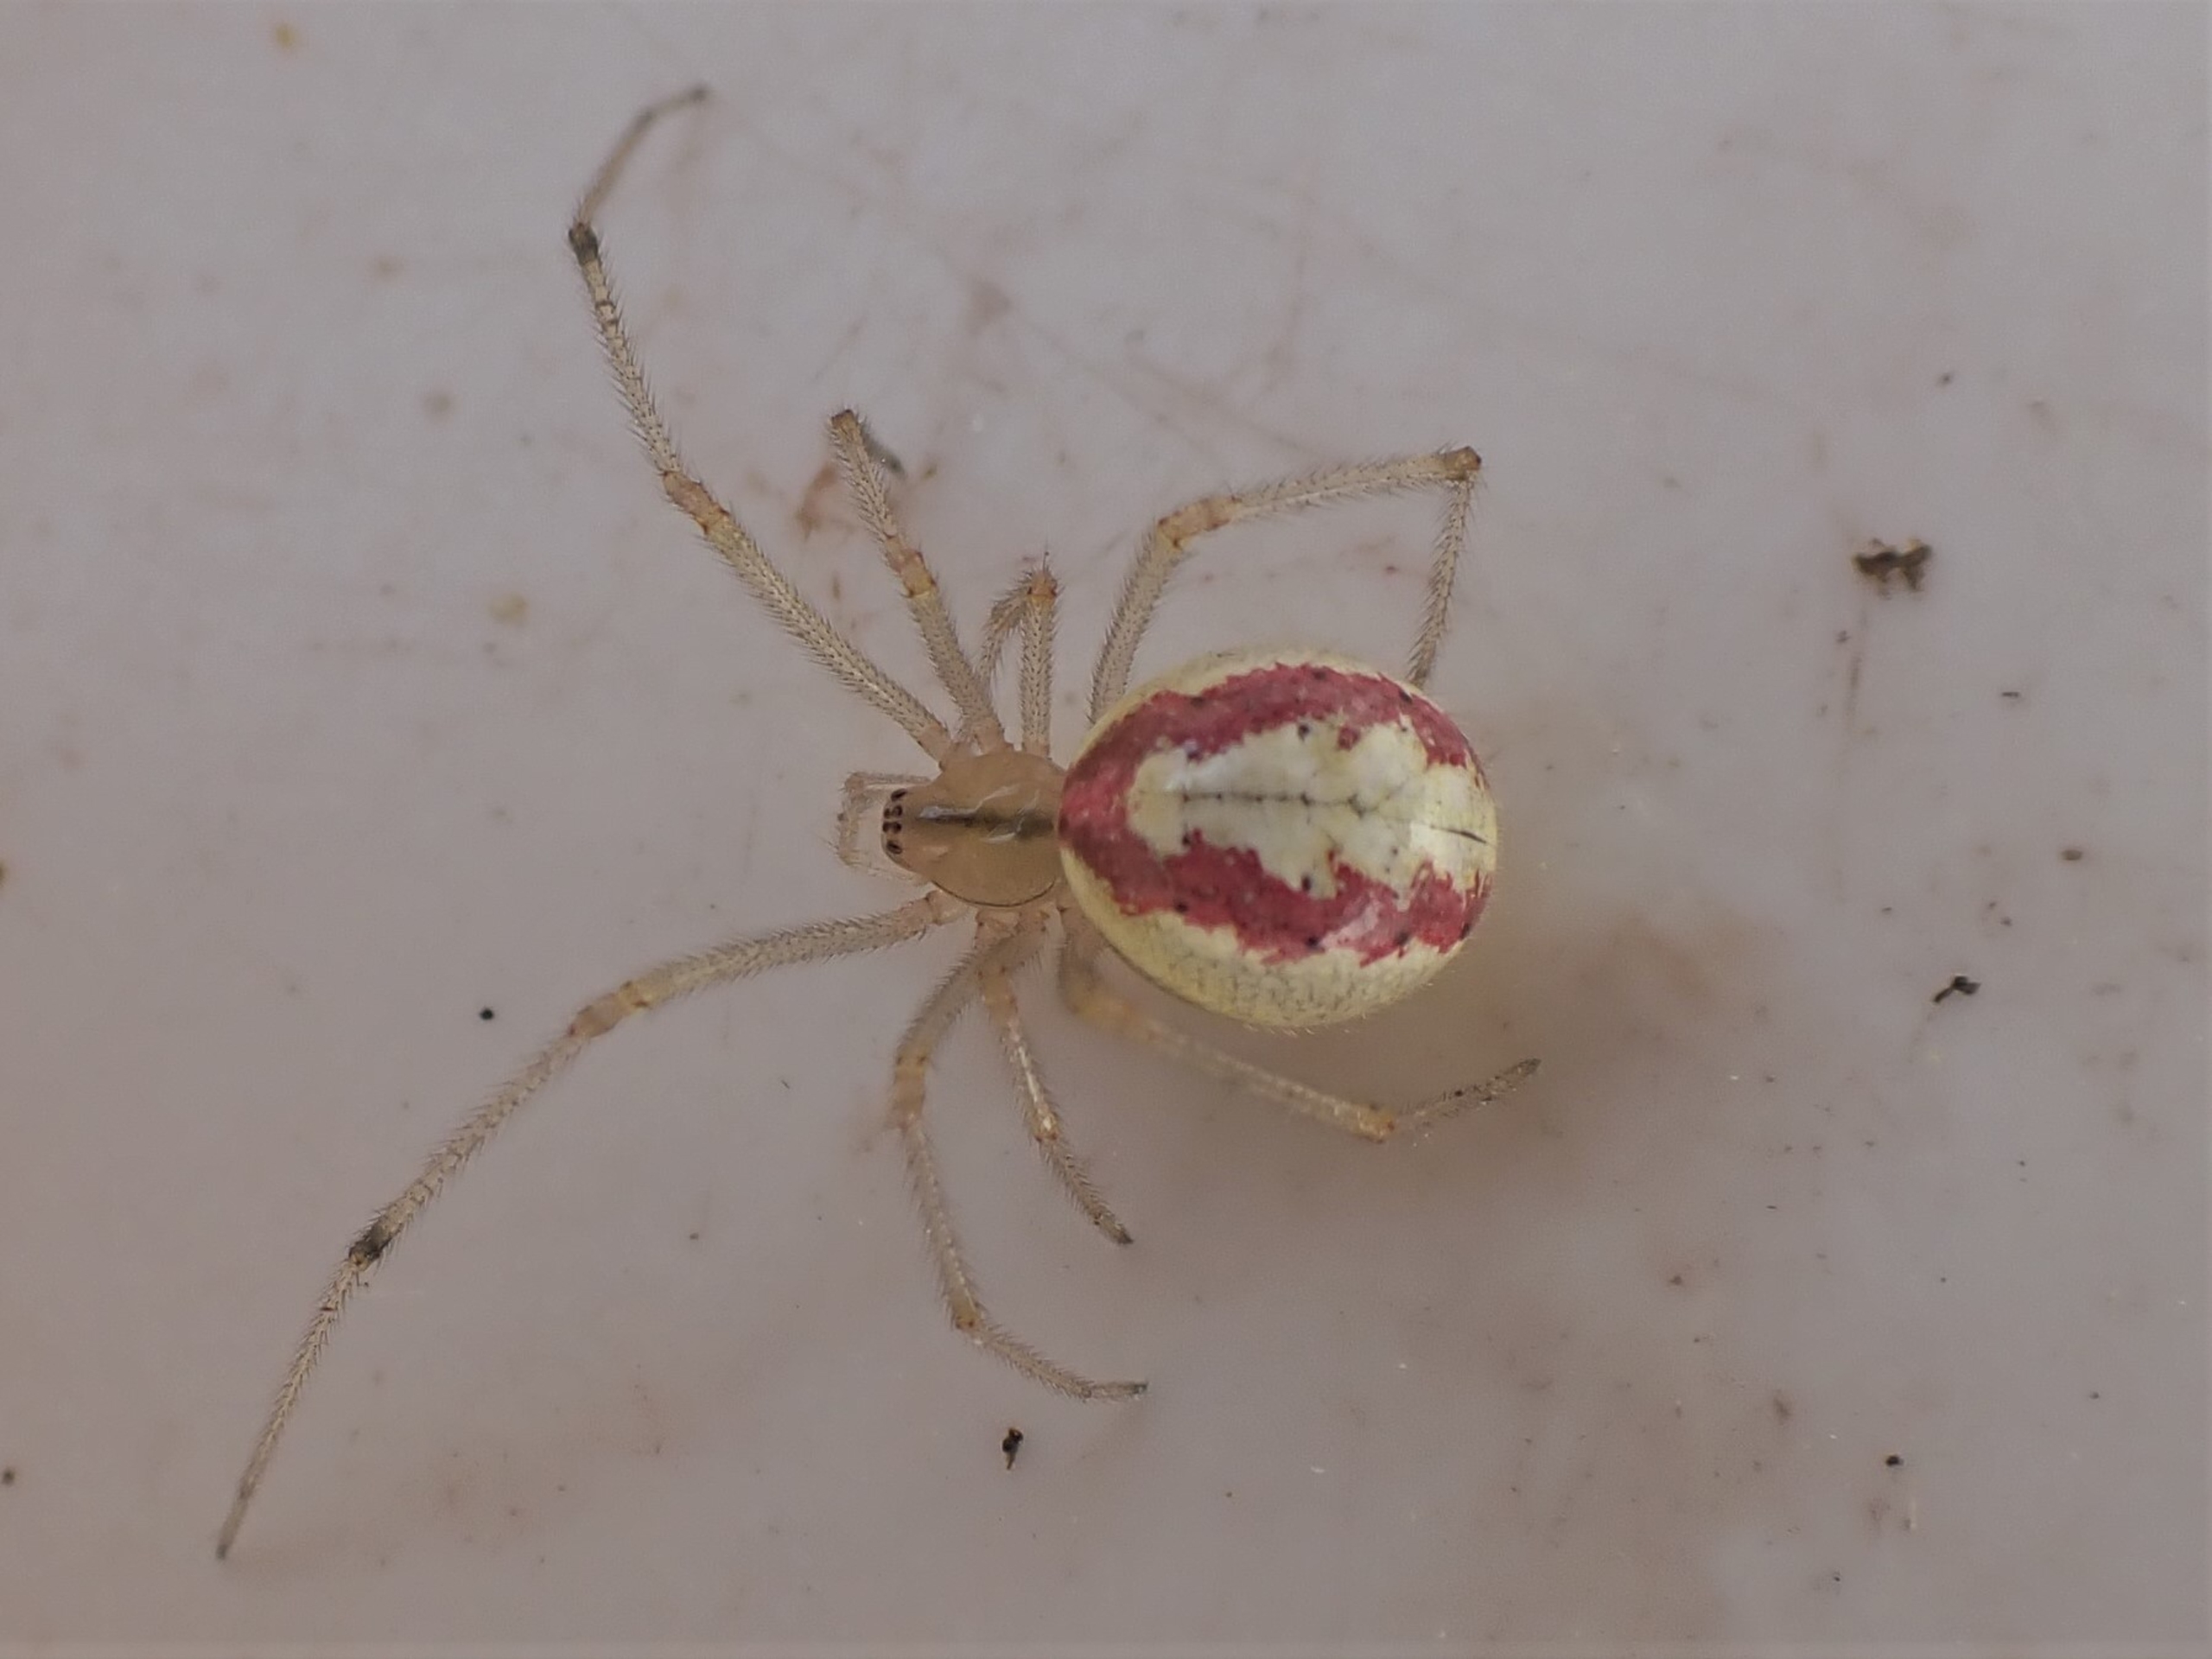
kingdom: Animalia
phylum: Arthropoda
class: Arachnida
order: Araneae
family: Theridiidae
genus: Enoplognatha
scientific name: Enoplognatha
